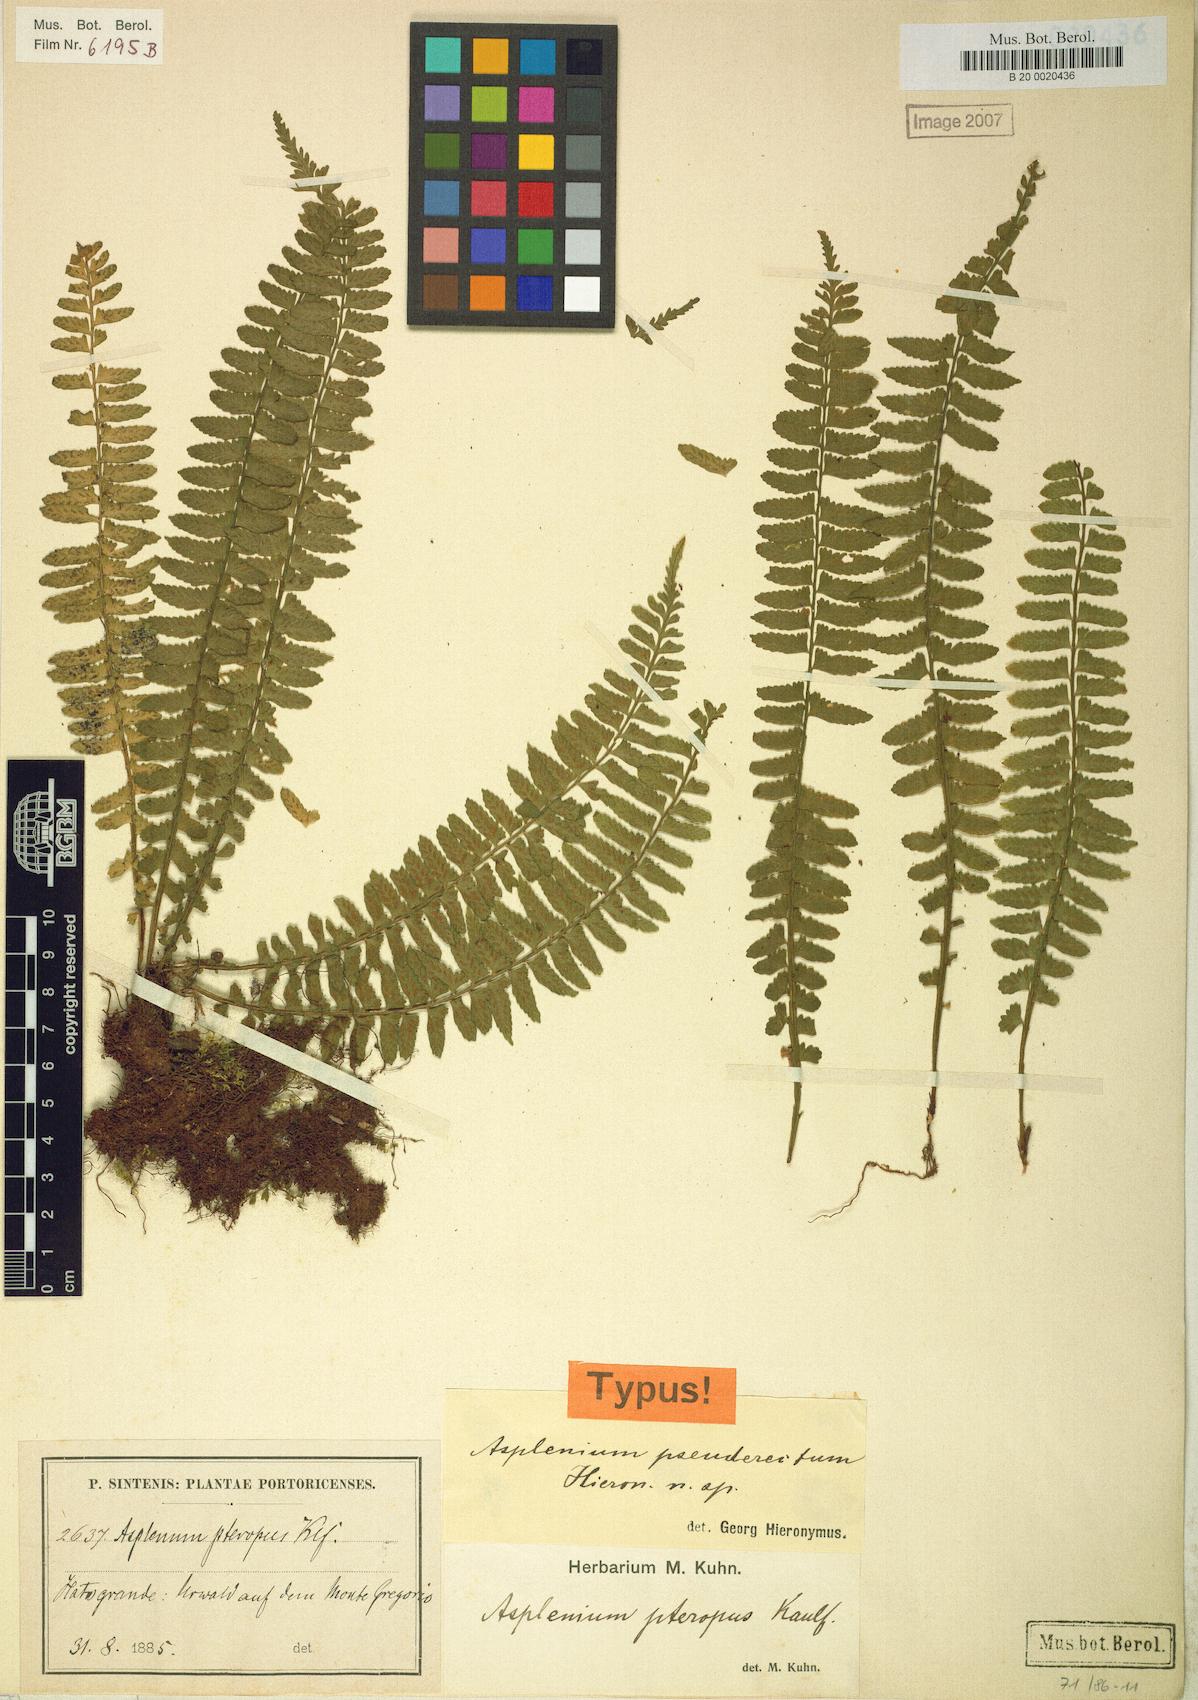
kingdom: Plantae
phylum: Tracheophyta
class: Polypodiopsida
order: Polypodiales
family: Aspleniaceae
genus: Asplenium
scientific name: Asplenium pseuderectum
